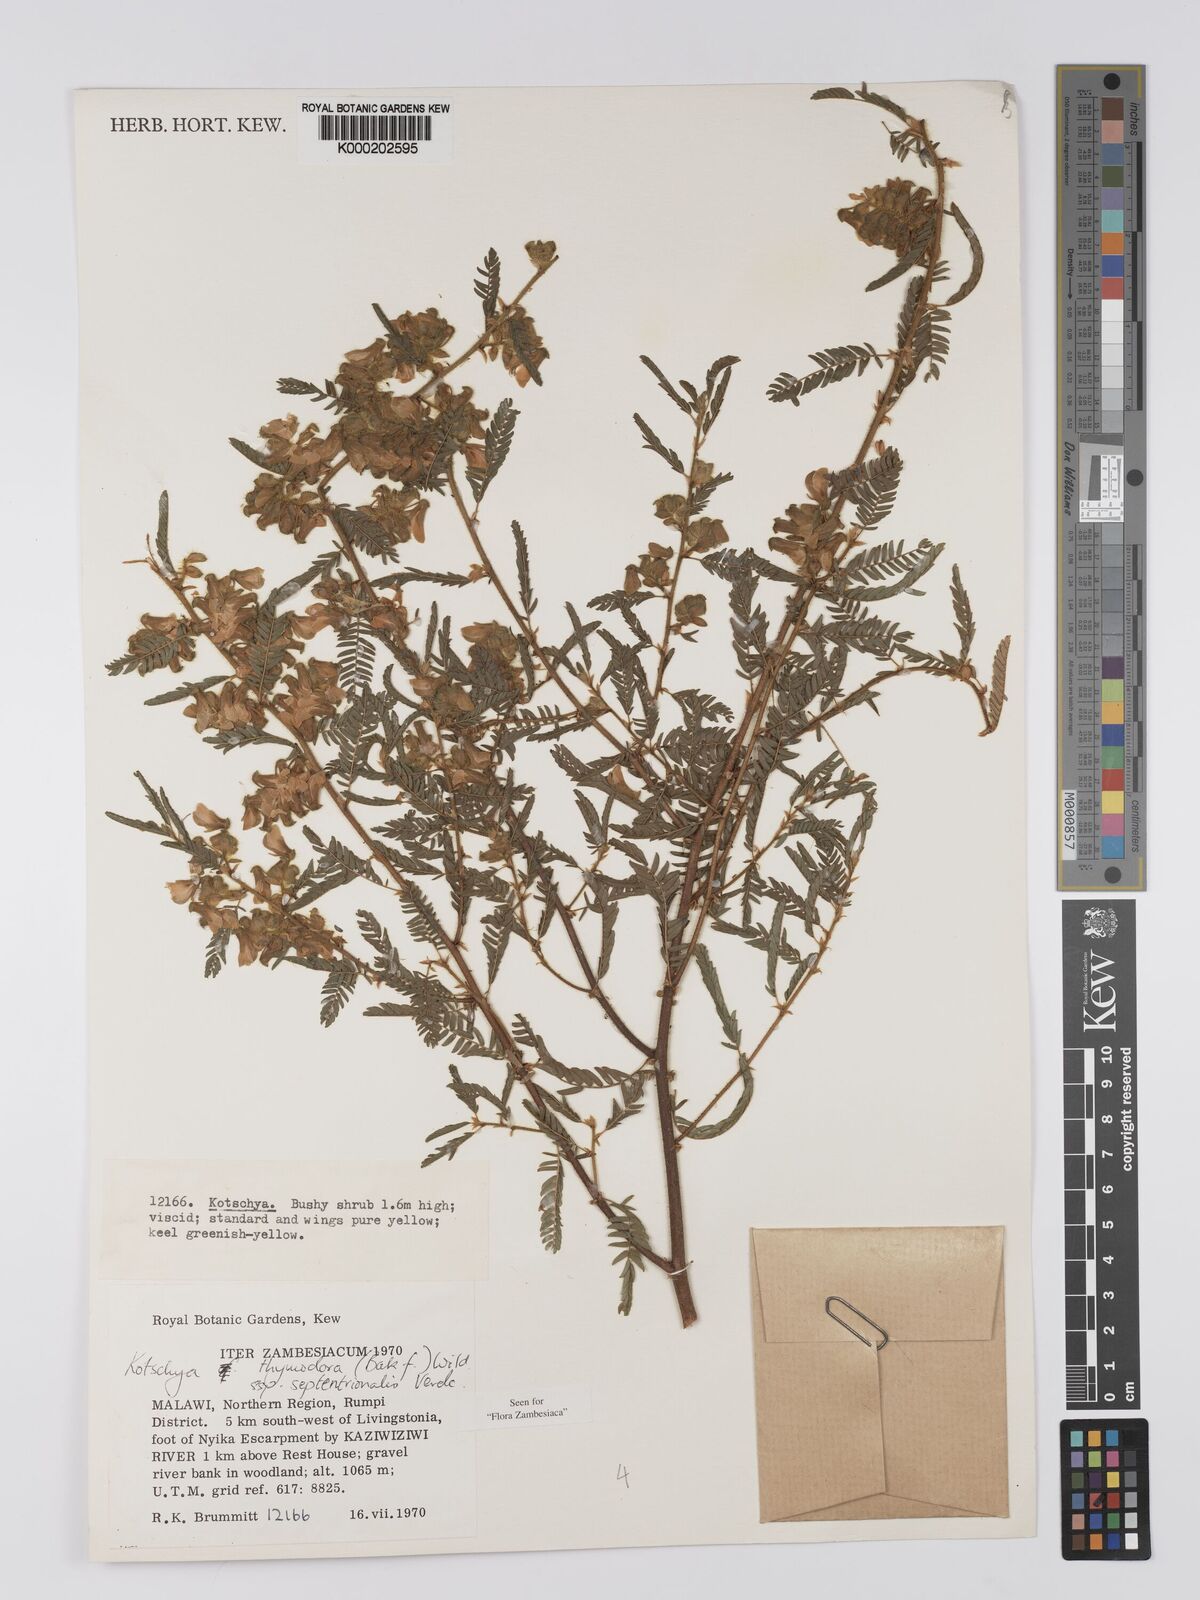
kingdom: Plantae
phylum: Tracheophyta
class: Magnoliopsida
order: Fabales
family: Fabaceae
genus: Kotschya
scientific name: Kotschya thymodora
